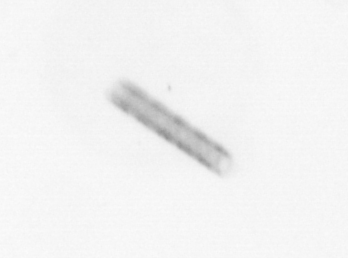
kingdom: Chromista
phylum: Ochrophyta
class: Bacillariophyceae
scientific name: Bacillariophyceae
